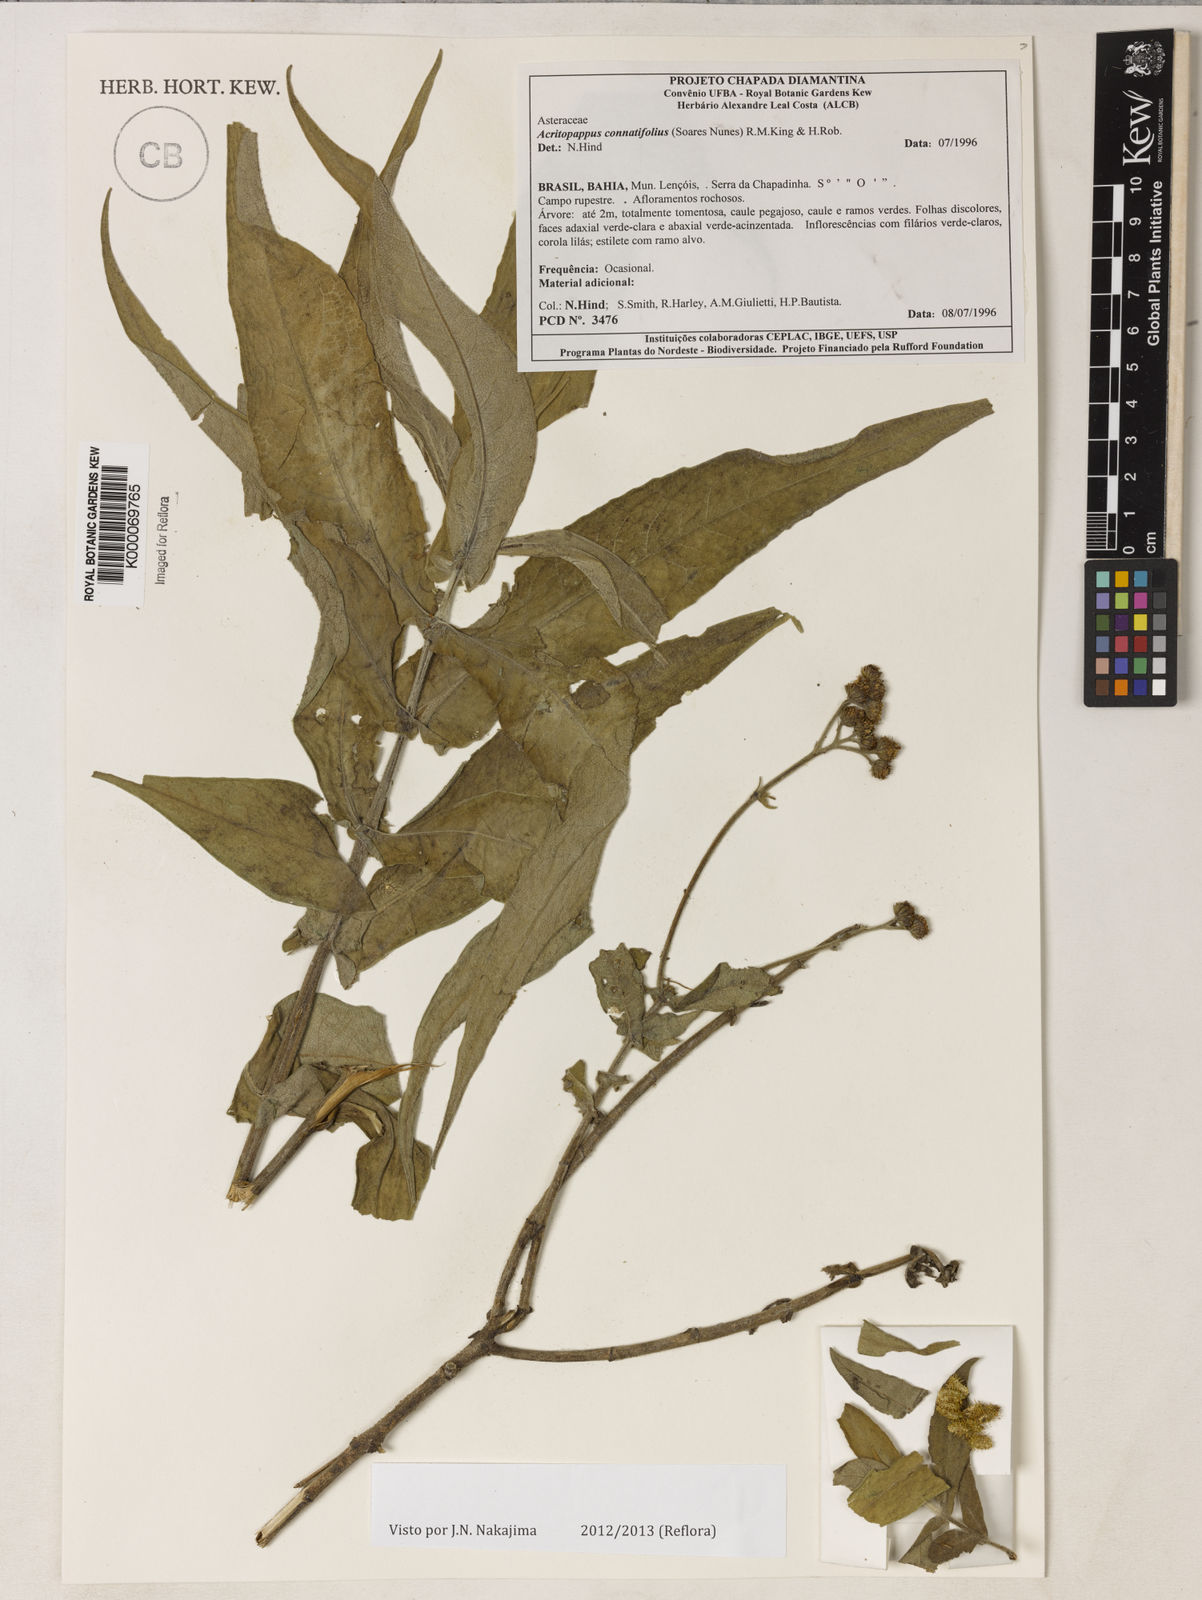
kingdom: Plantae
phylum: Tracheophyta
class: Magnoliopsida
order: Asterales
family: Asteraceae
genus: Acritopappus
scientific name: Acritopappus connatifolius
